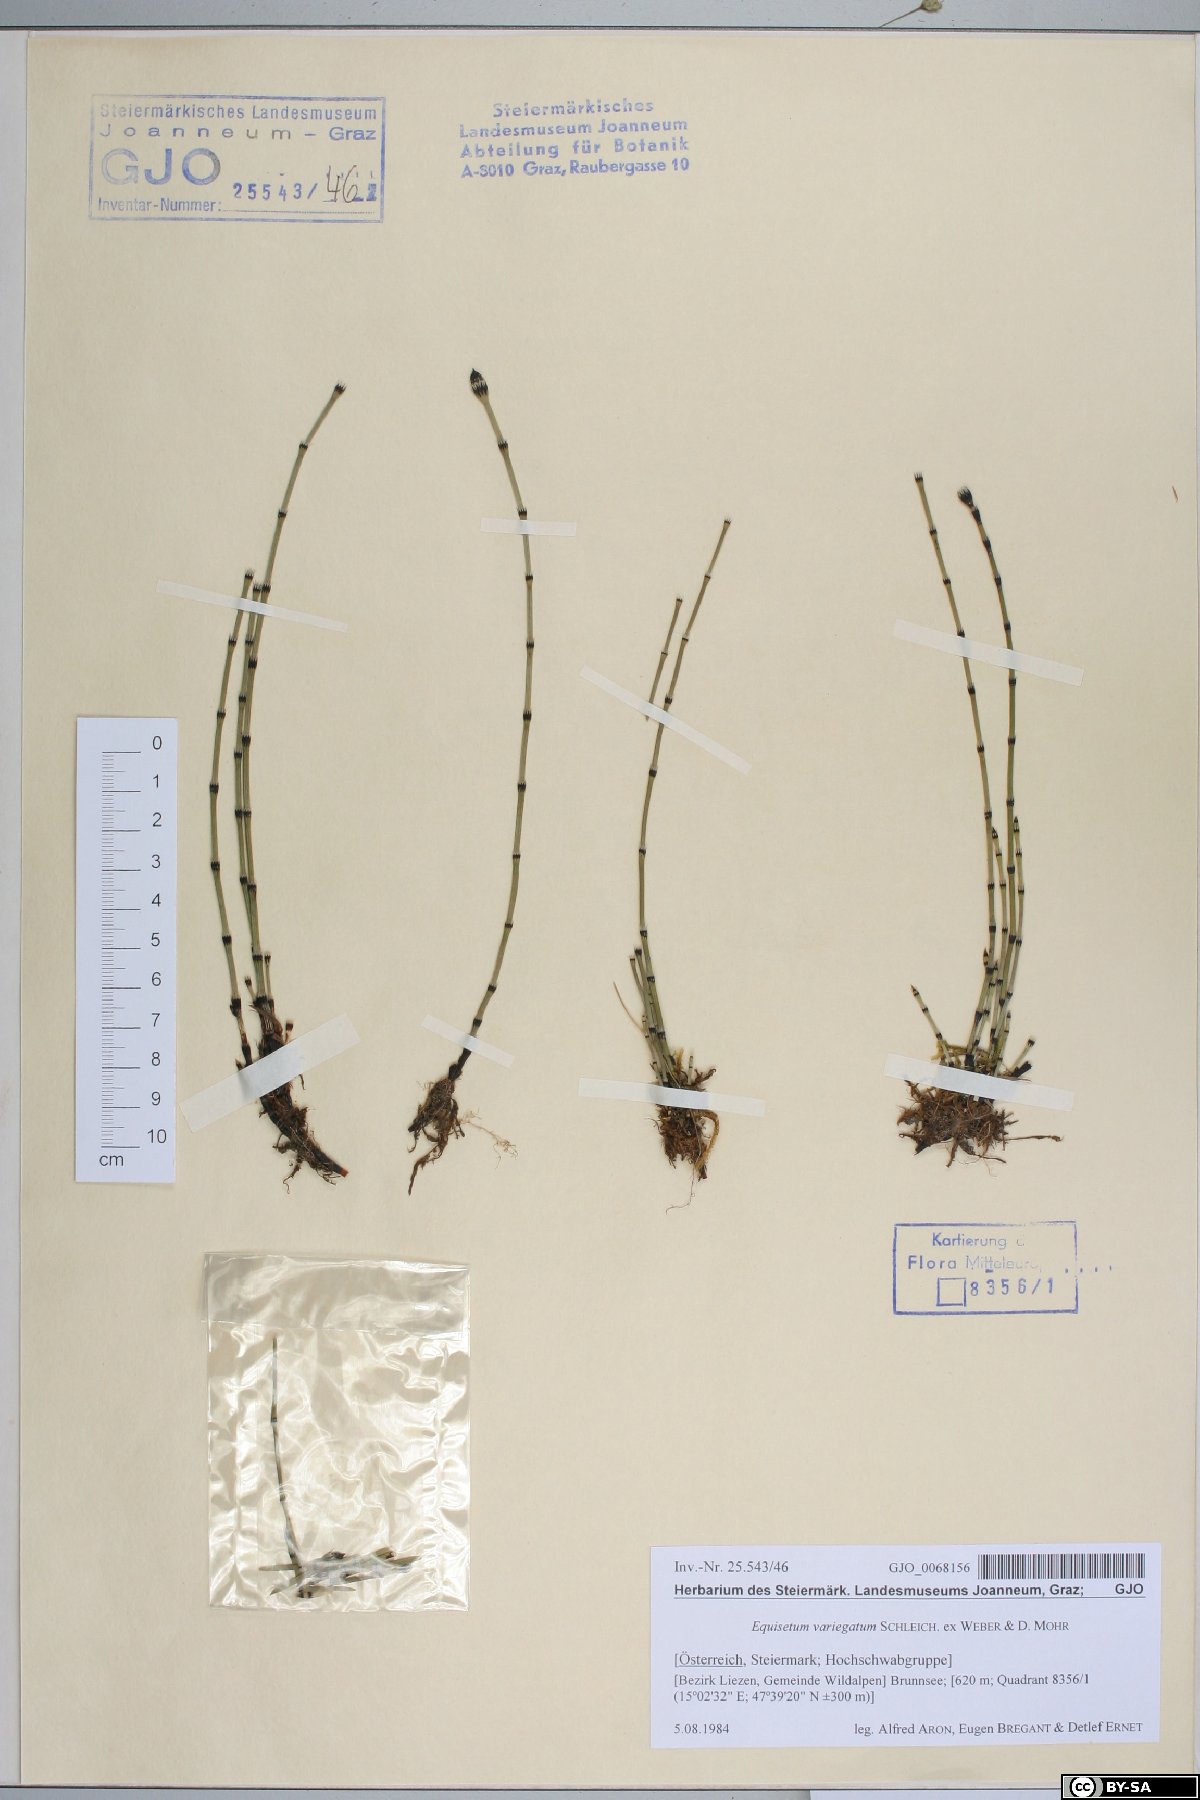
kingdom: Plantae
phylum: Tracheophyta
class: Polypodiopsida
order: Equisetales
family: Equisetaceae
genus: Equisetum
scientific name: Equisetum variegatum
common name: Variegated horsetail
